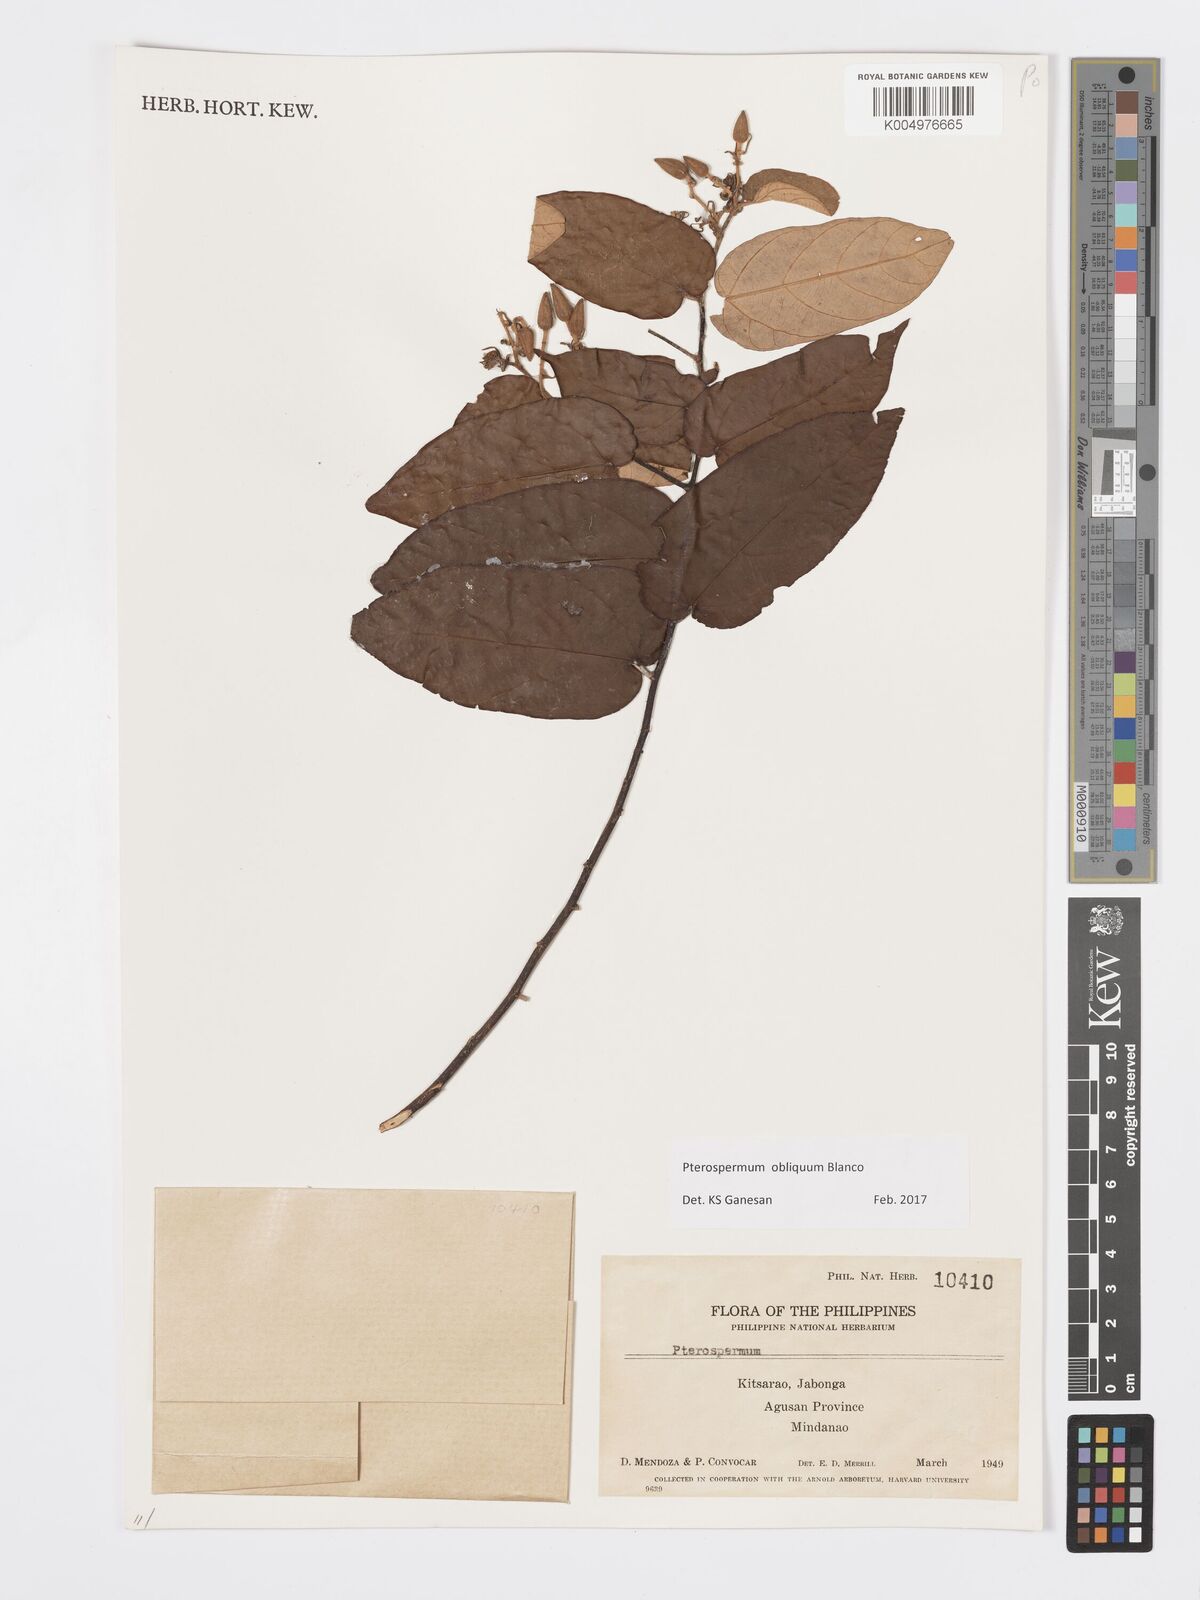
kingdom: Plantae
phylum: Tracheophyta
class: Magnoliopsida
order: Malvales
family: Malvaceae
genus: Pterospermum
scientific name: Pterospermum obliquum
